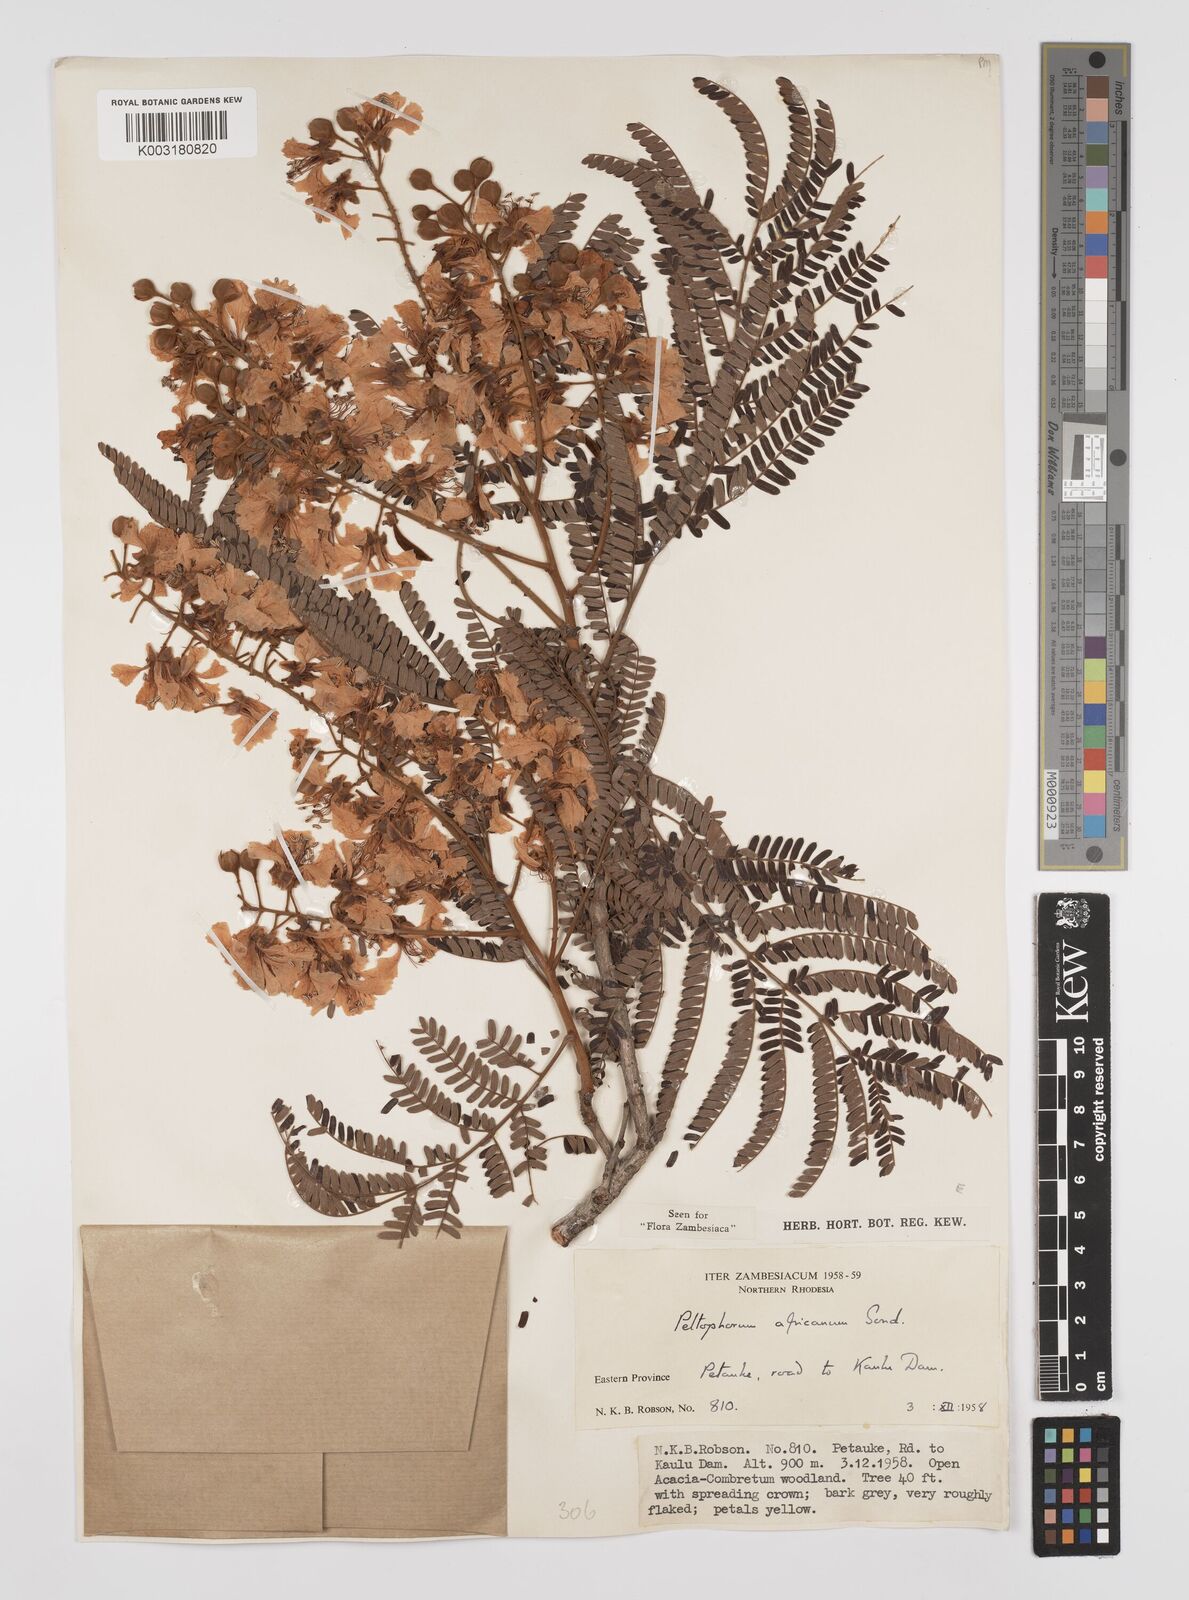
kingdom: Plantae
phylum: Tracheophyta
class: Magnoliopsida
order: Fabales
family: Fabaceae
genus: Peltophorum
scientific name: Peltophorum africanum
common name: African black wattle
